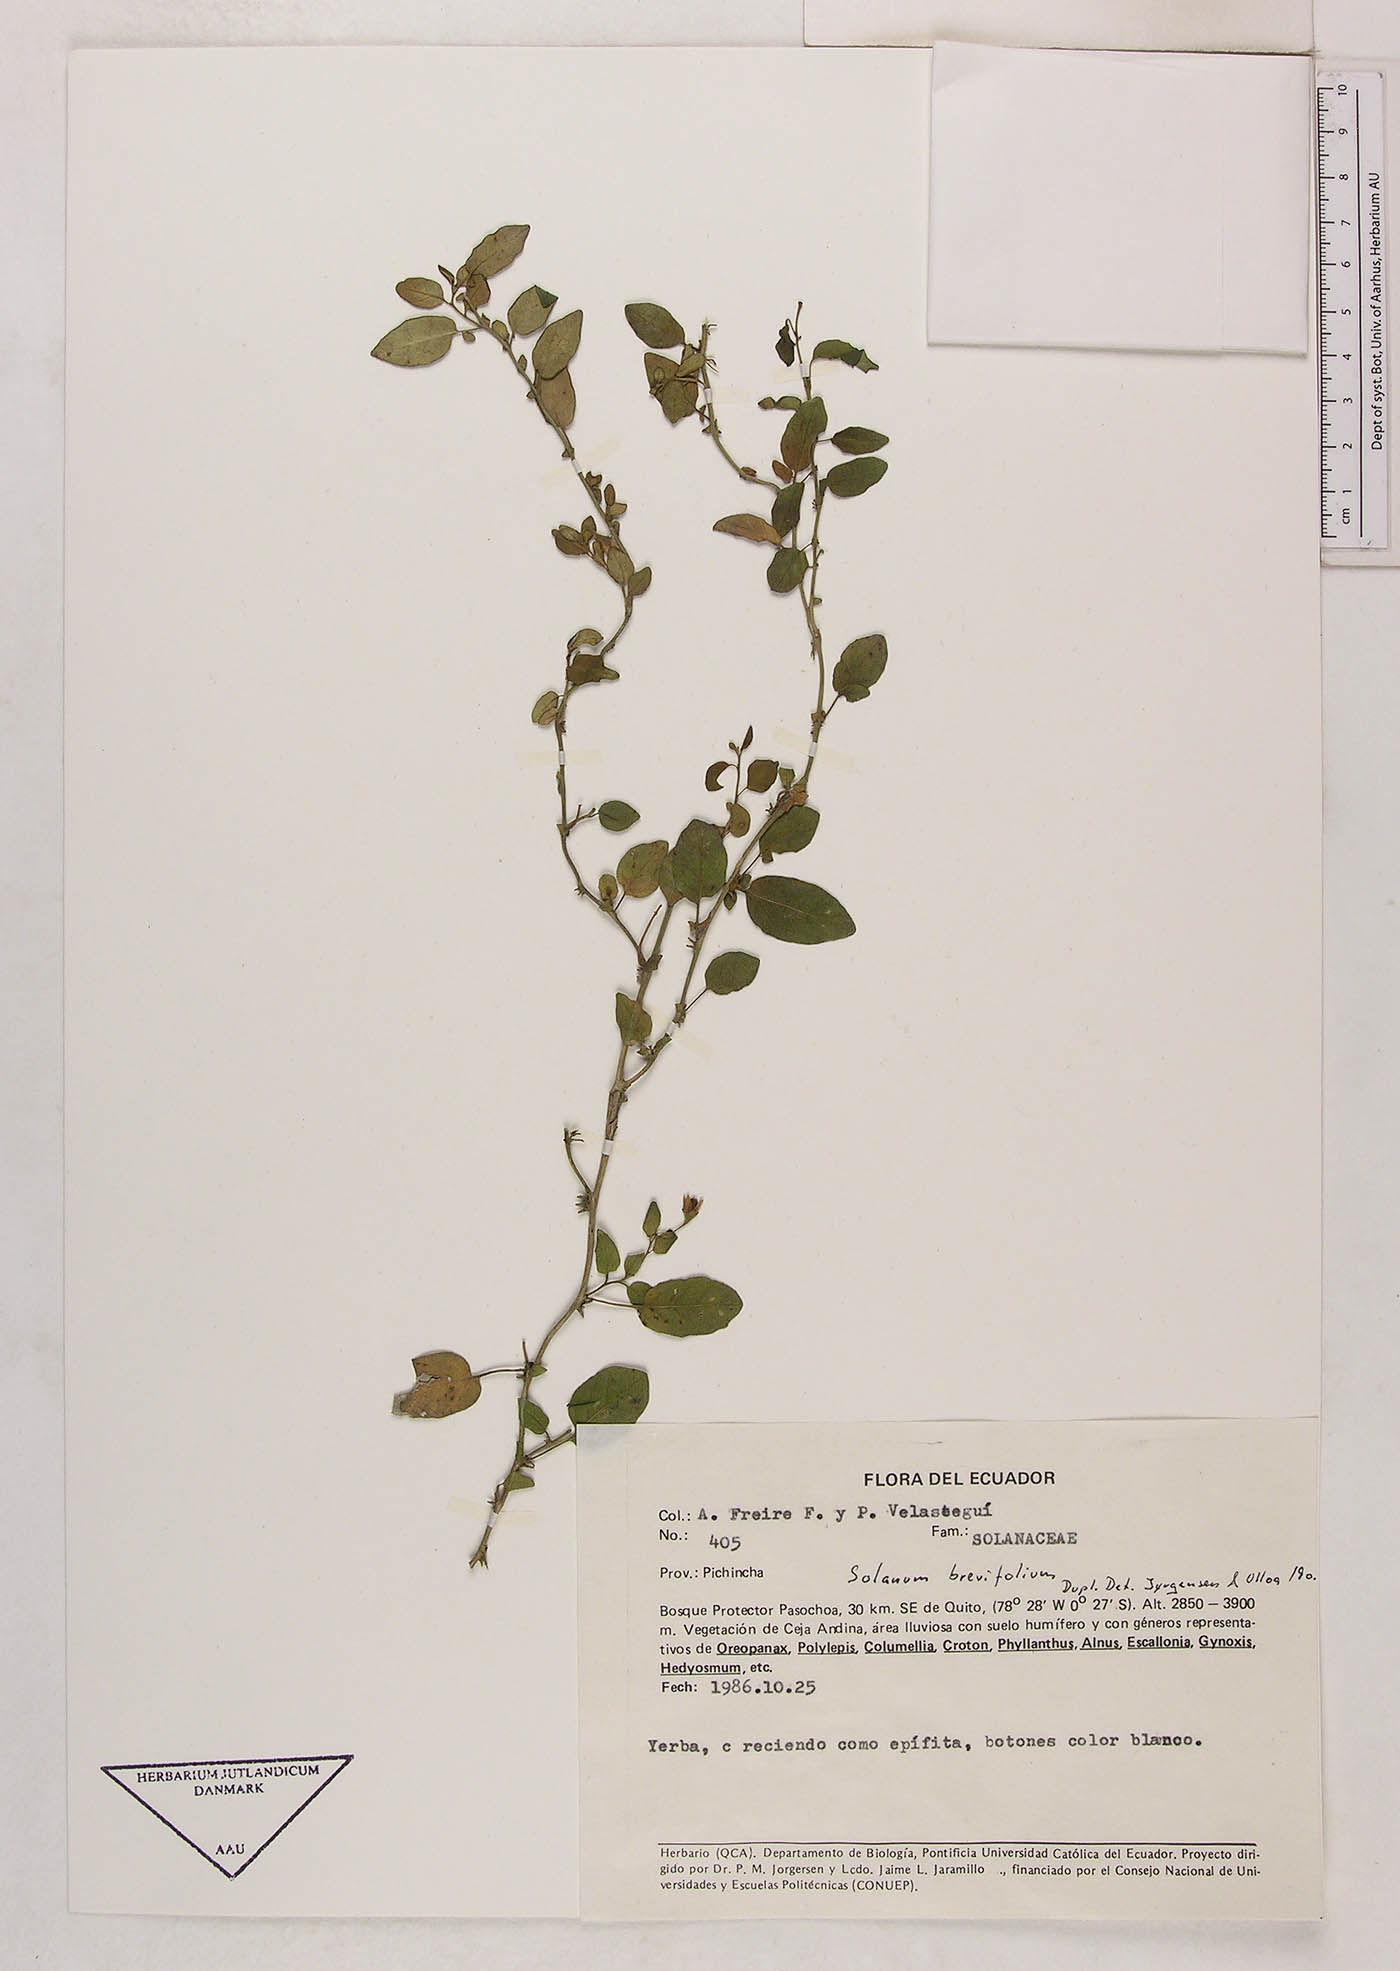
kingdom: Plantae
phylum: Tracheophyta
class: Magnoliopsida
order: Solanales
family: Solanaceae
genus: Solanum
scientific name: Solanum brevifolium
